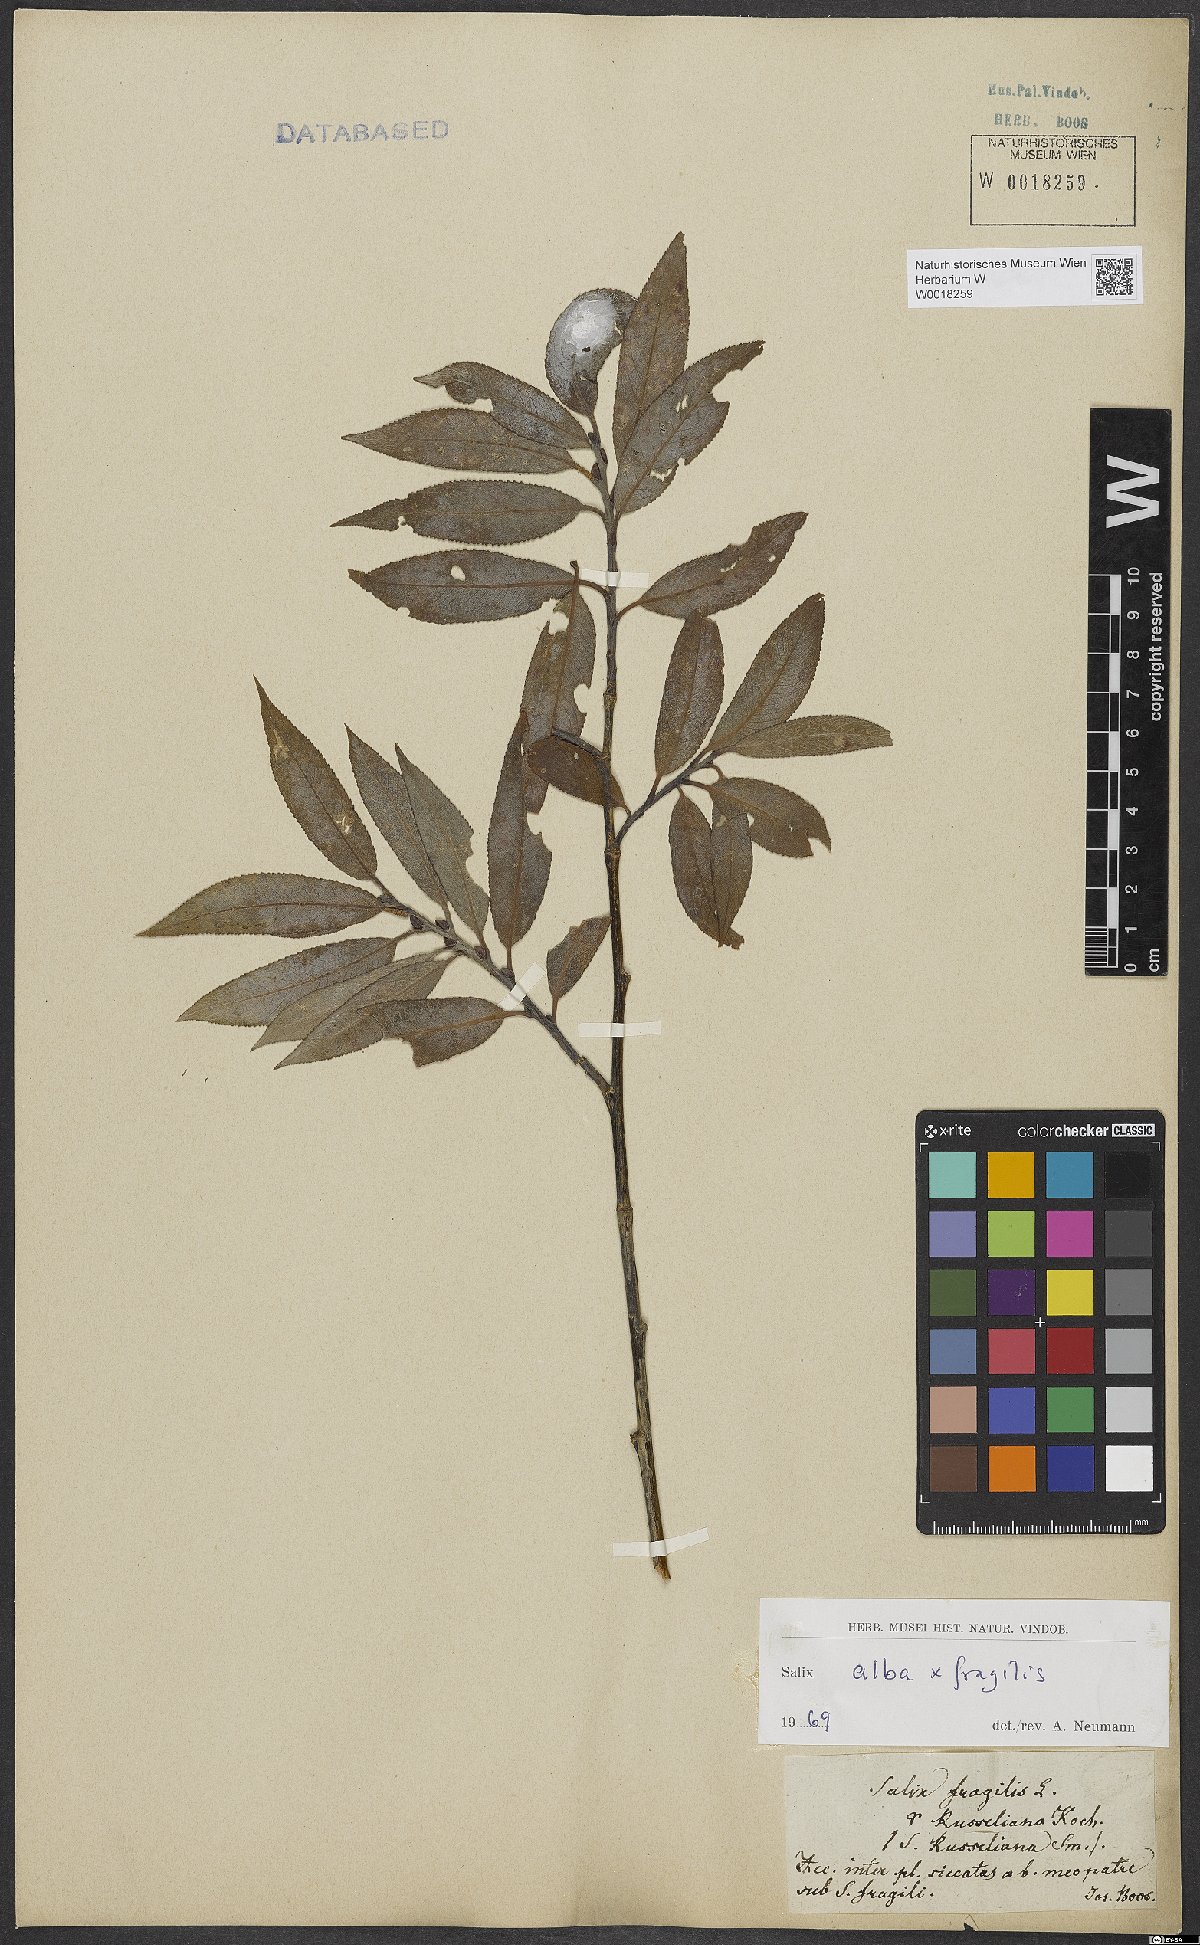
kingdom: Plantae
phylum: Tracheophyta
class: Magnoliopsida
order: Malpighiales
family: Salicaceae
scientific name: Salicaceae
